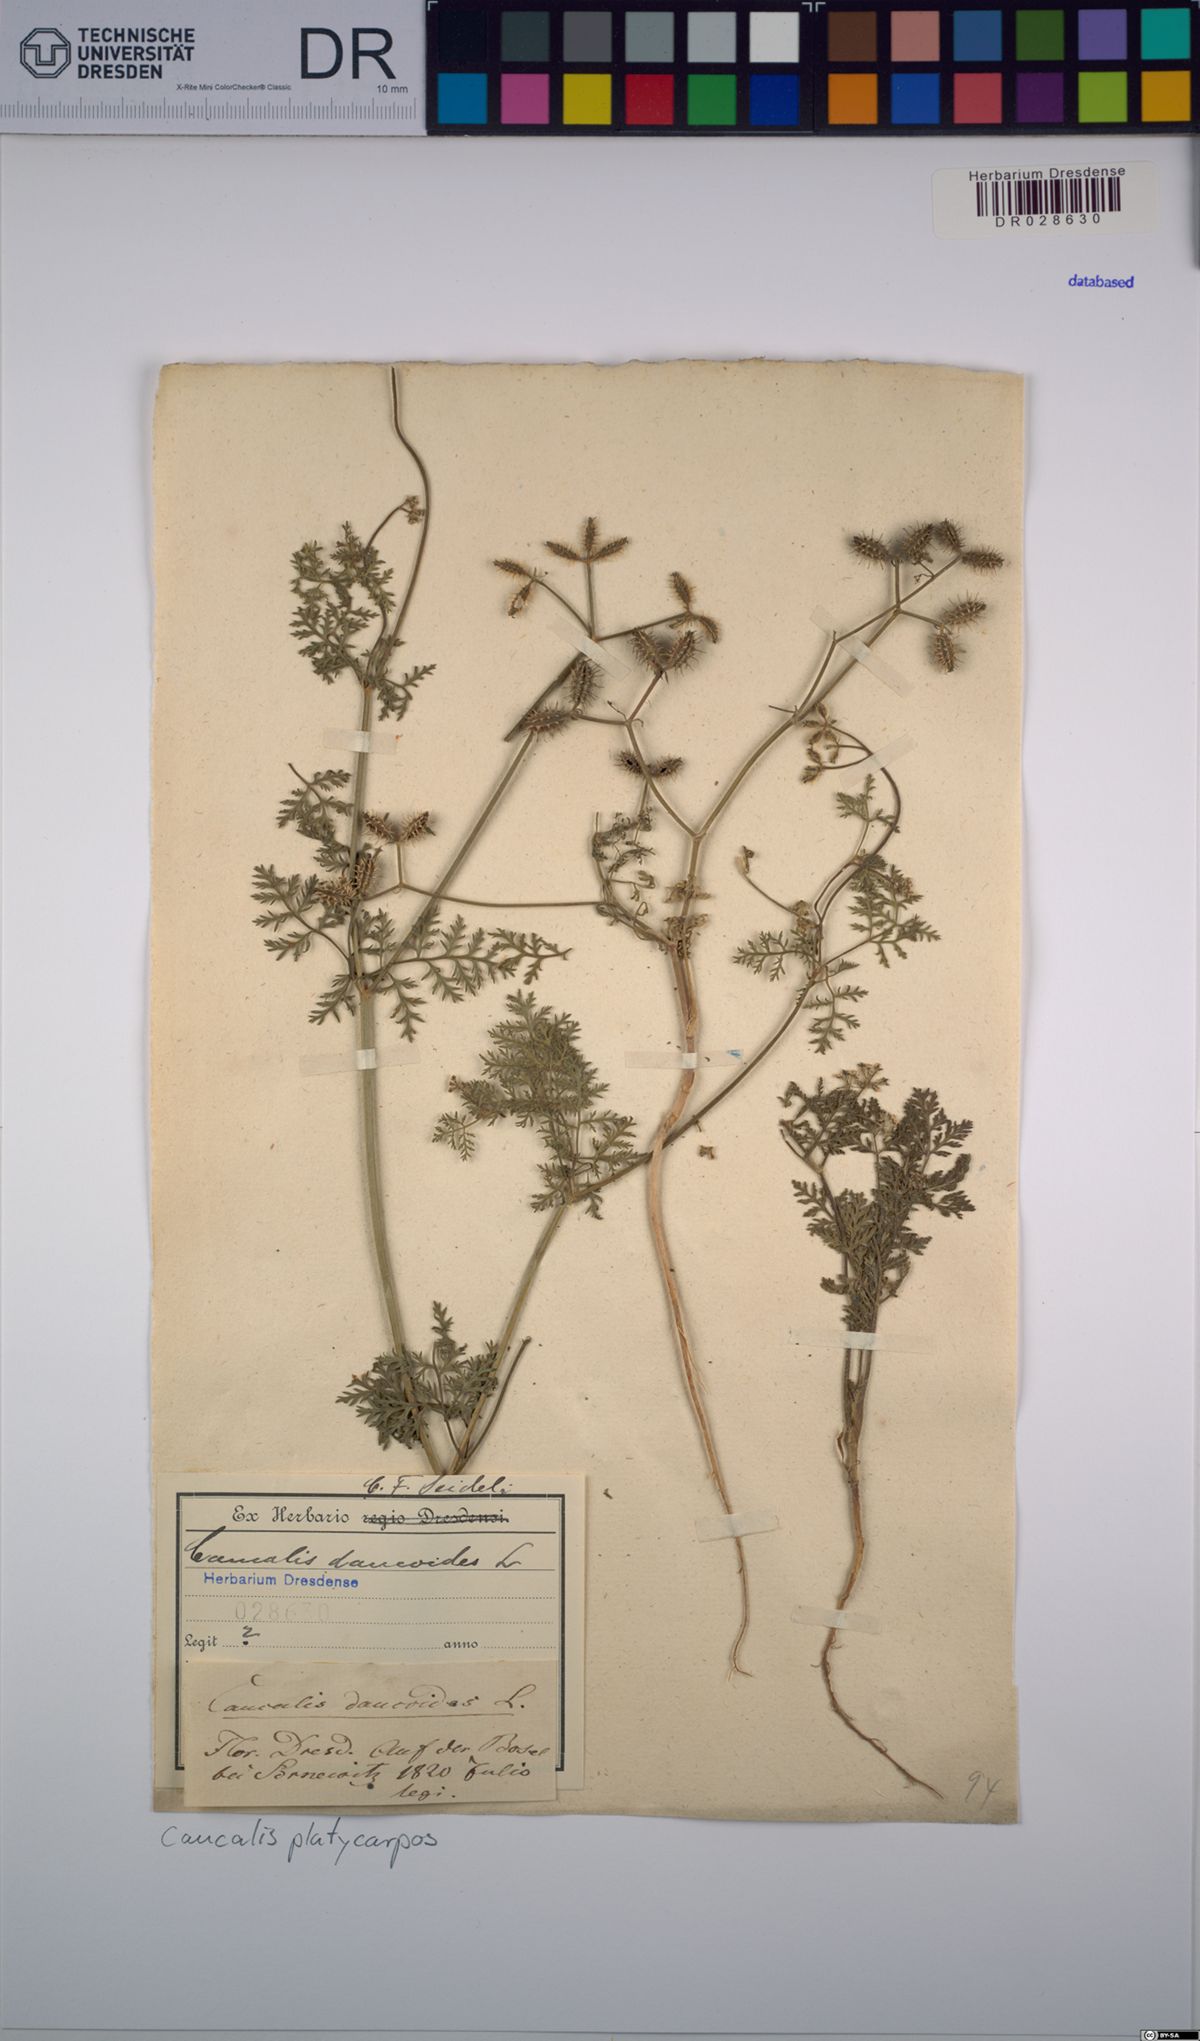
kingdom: Plantae
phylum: Tracheophyta
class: Magnoliopsida
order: Apiales
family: Apiaceae
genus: Caucalis
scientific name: Caucalis platycarpos
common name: Small bur-parsley
